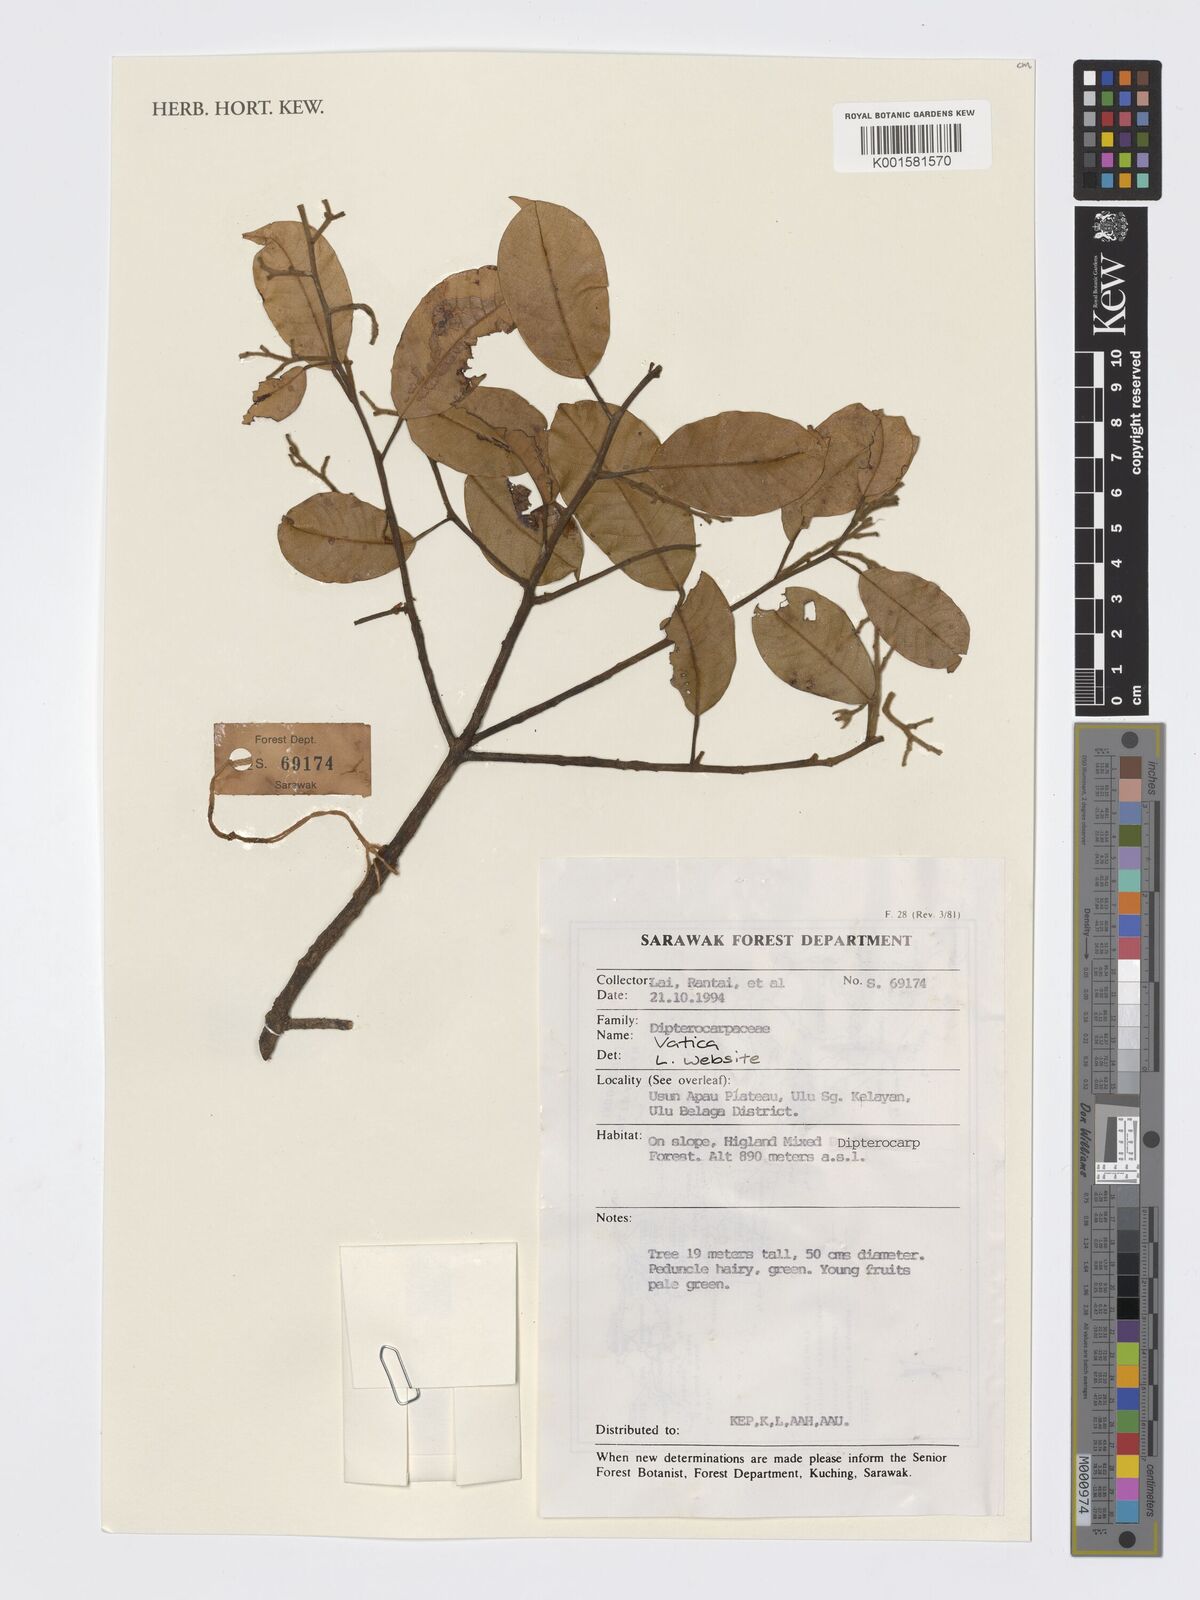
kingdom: Plantae
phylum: Tracheophyta
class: Magnoliopsida
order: Malvales
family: Dipterocarpaceae
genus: Vatica
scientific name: Vatica
